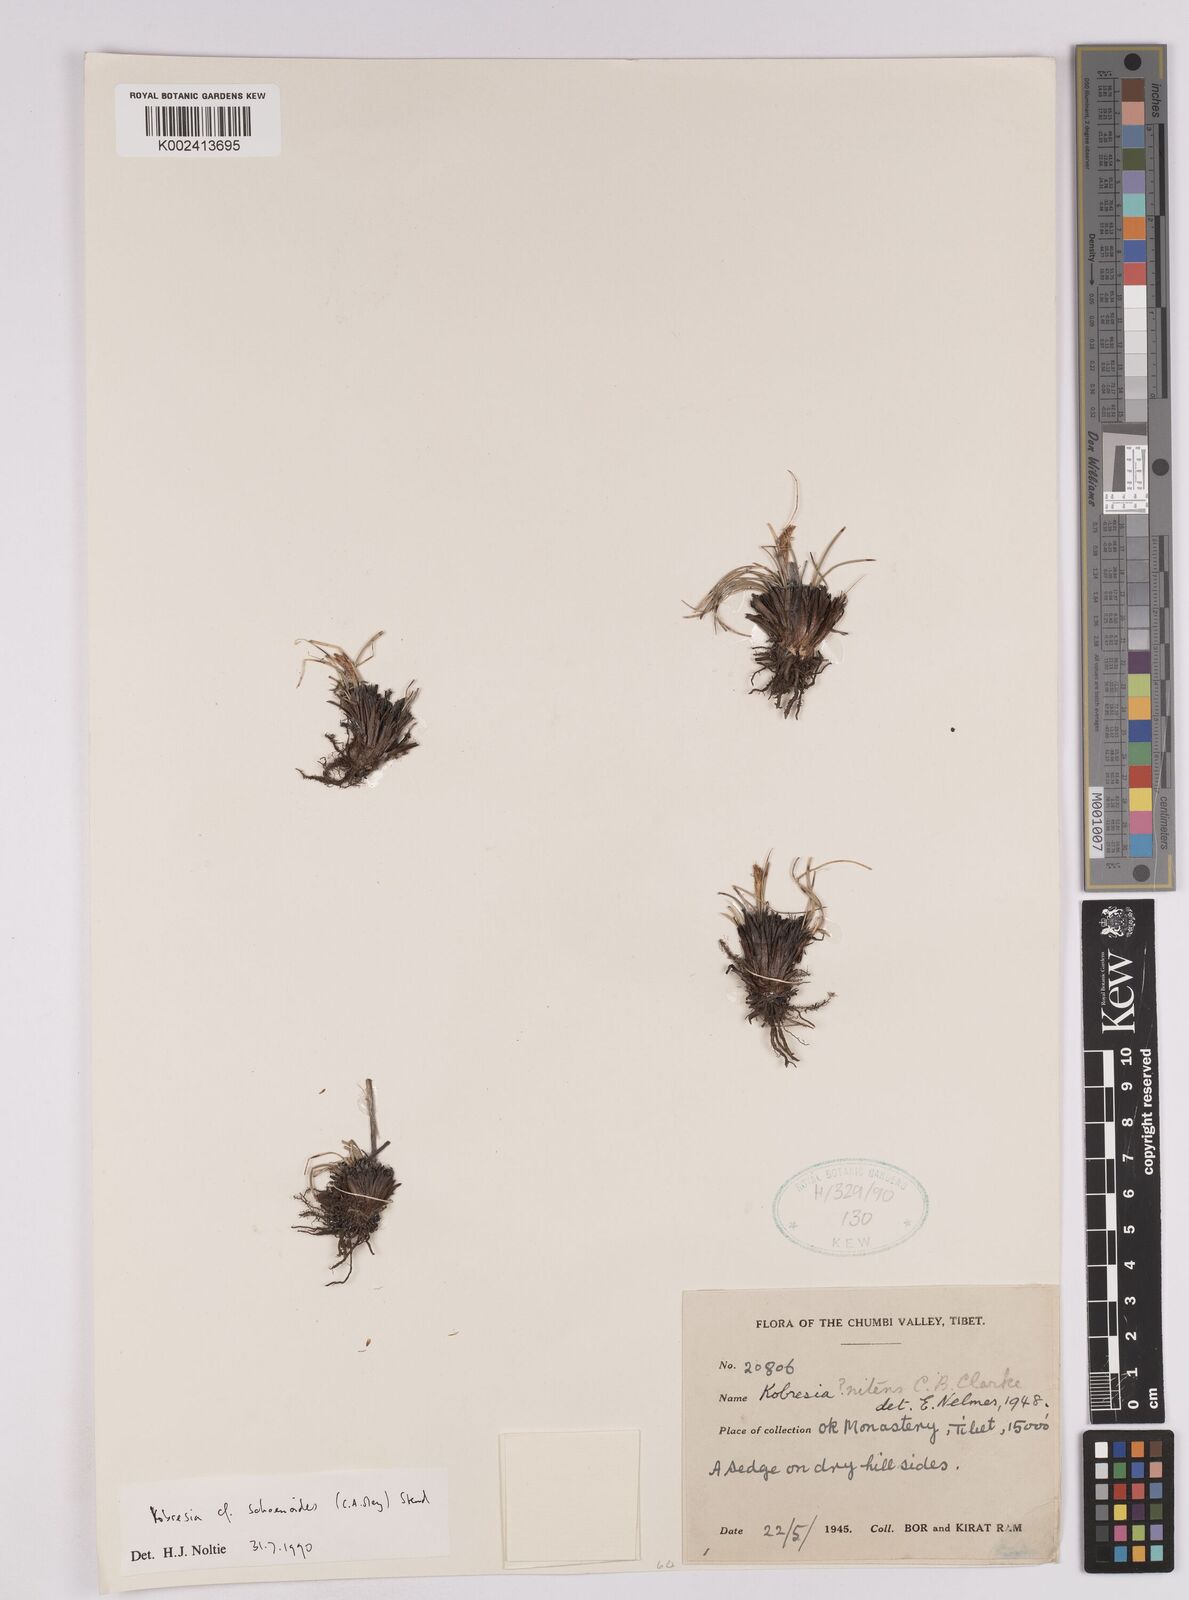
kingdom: Plantae
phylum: Tracheophyta
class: Liliopsida
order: Poales
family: Cyperaceae
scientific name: Cyperaceae
